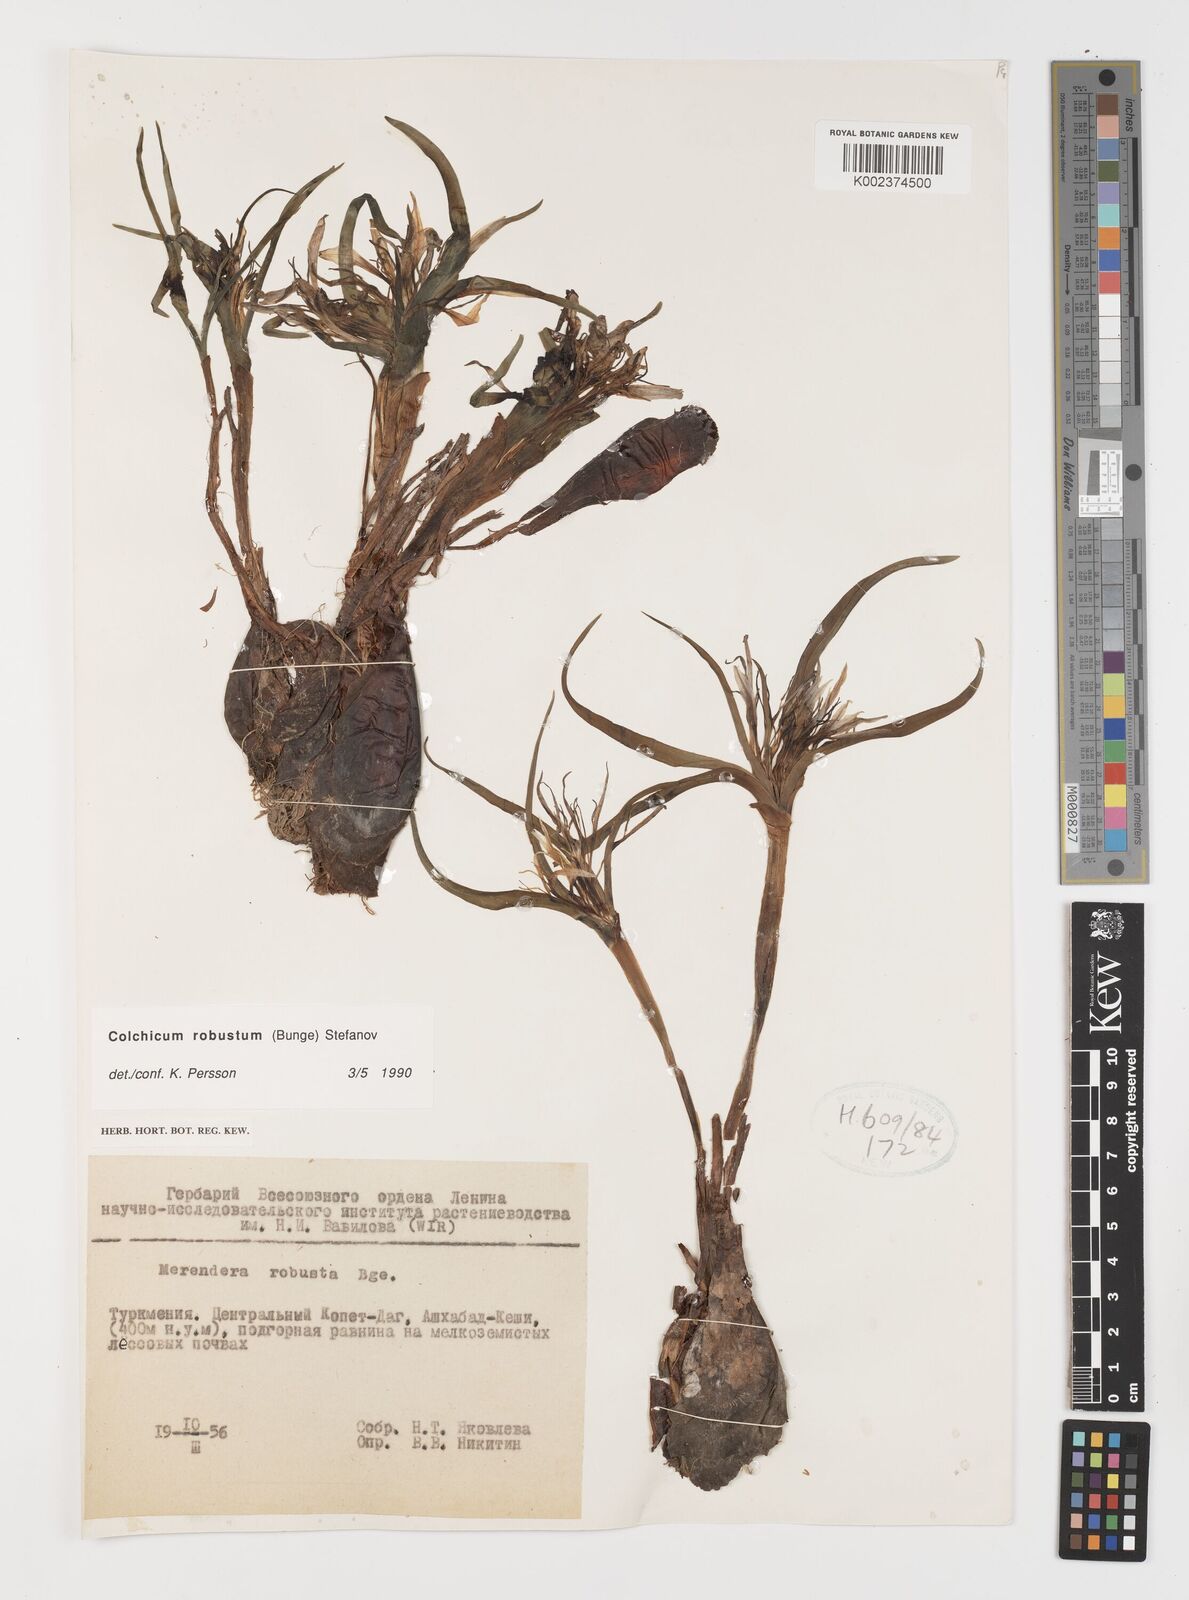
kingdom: Plantae
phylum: Tracheophyta
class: Liliopsida
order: Liliales
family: Colchicaceae
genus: Colchicum
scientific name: Colchicum robustum
